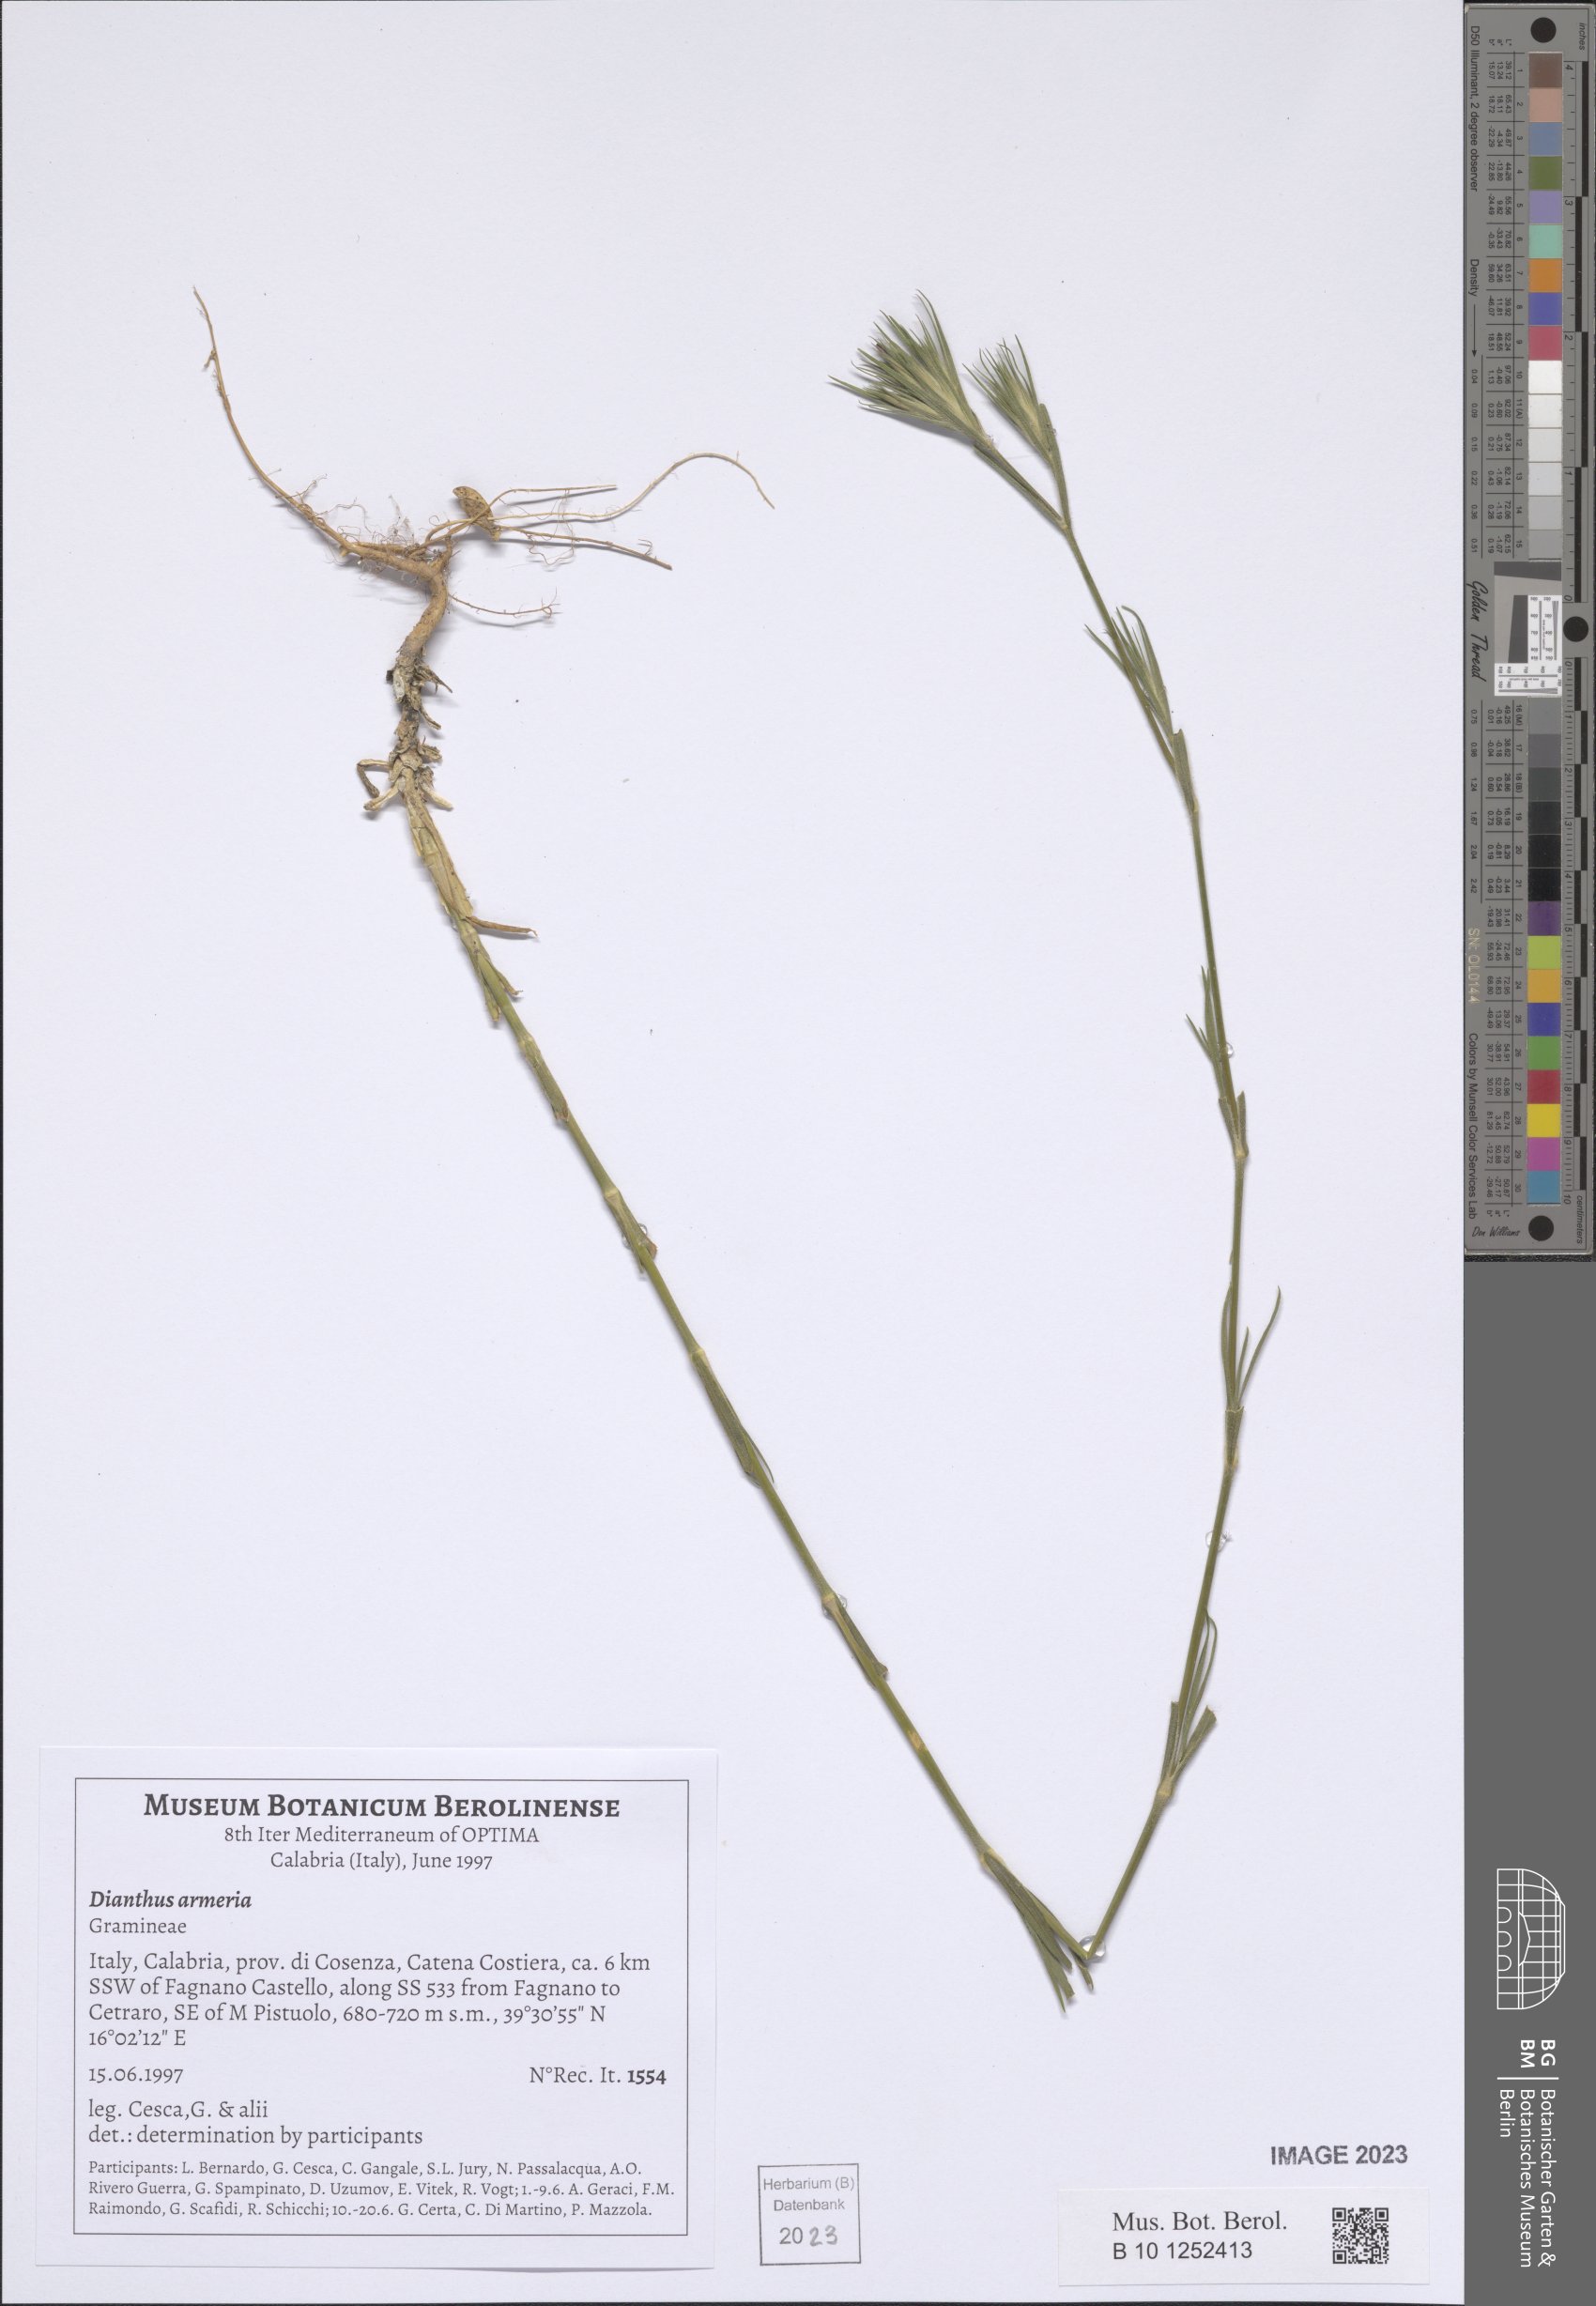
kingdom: Plantae
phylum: Tracheophyta
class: Magnoliopsida
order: Caryophyllales
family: Caryophyllaceae
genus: Dianthus
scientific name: Dianthus armeria
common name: Deptford pink
